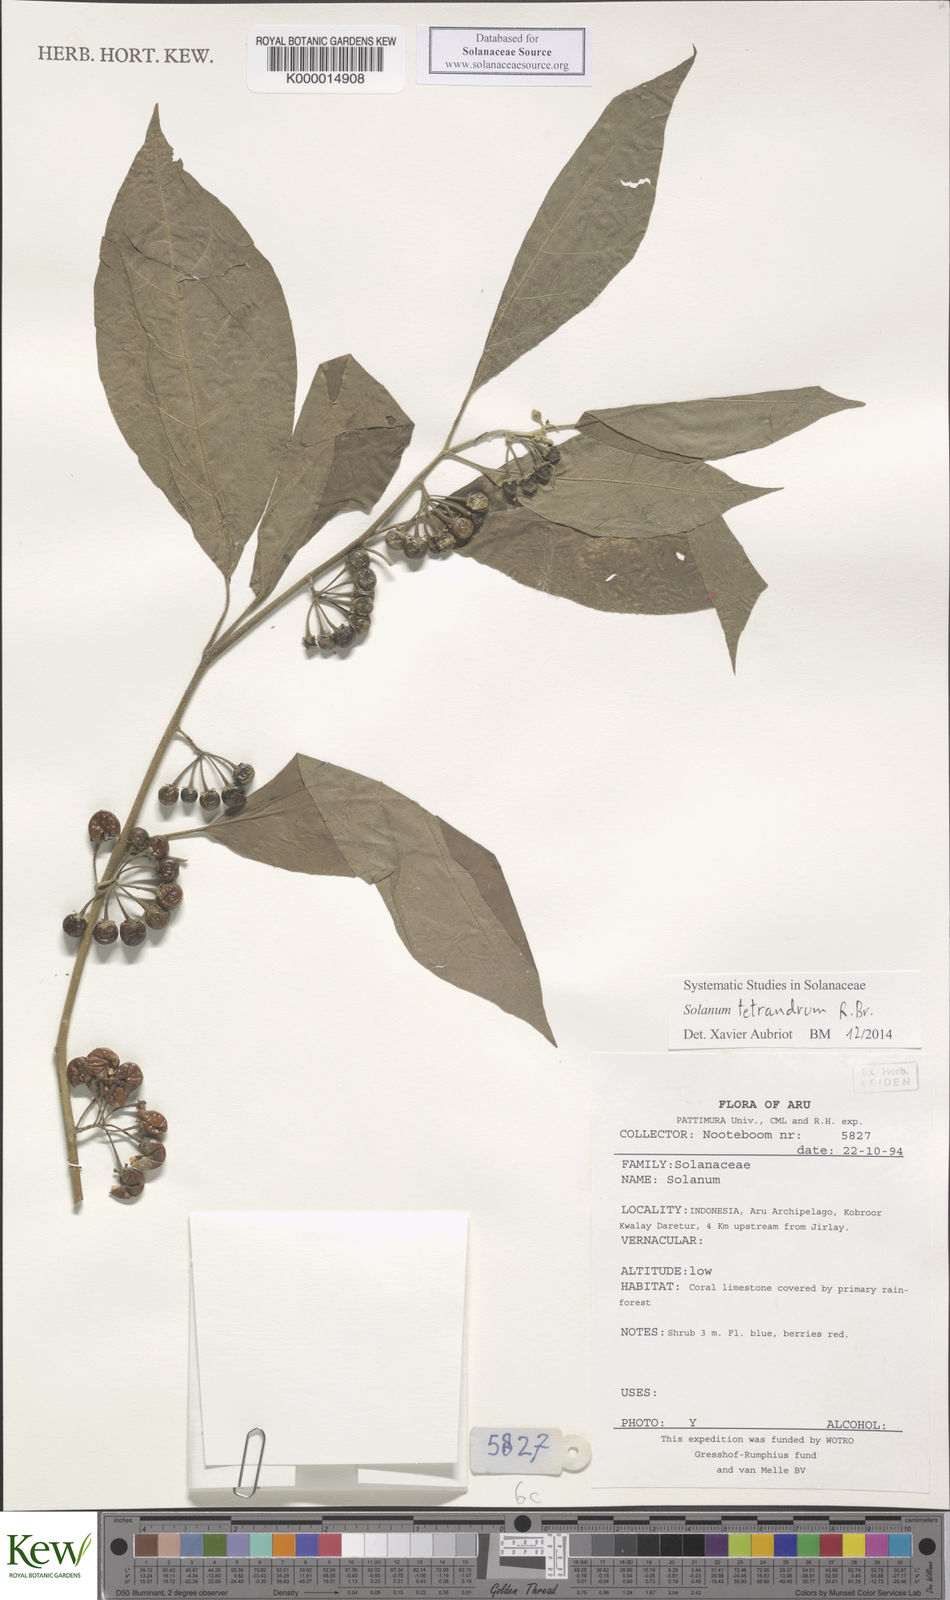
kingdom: Plantae
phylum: Tracheophyta
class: Magnoliopsida
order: Solanales
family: Solanaceae
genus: Solanum
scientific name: Solanum tetrandrum
